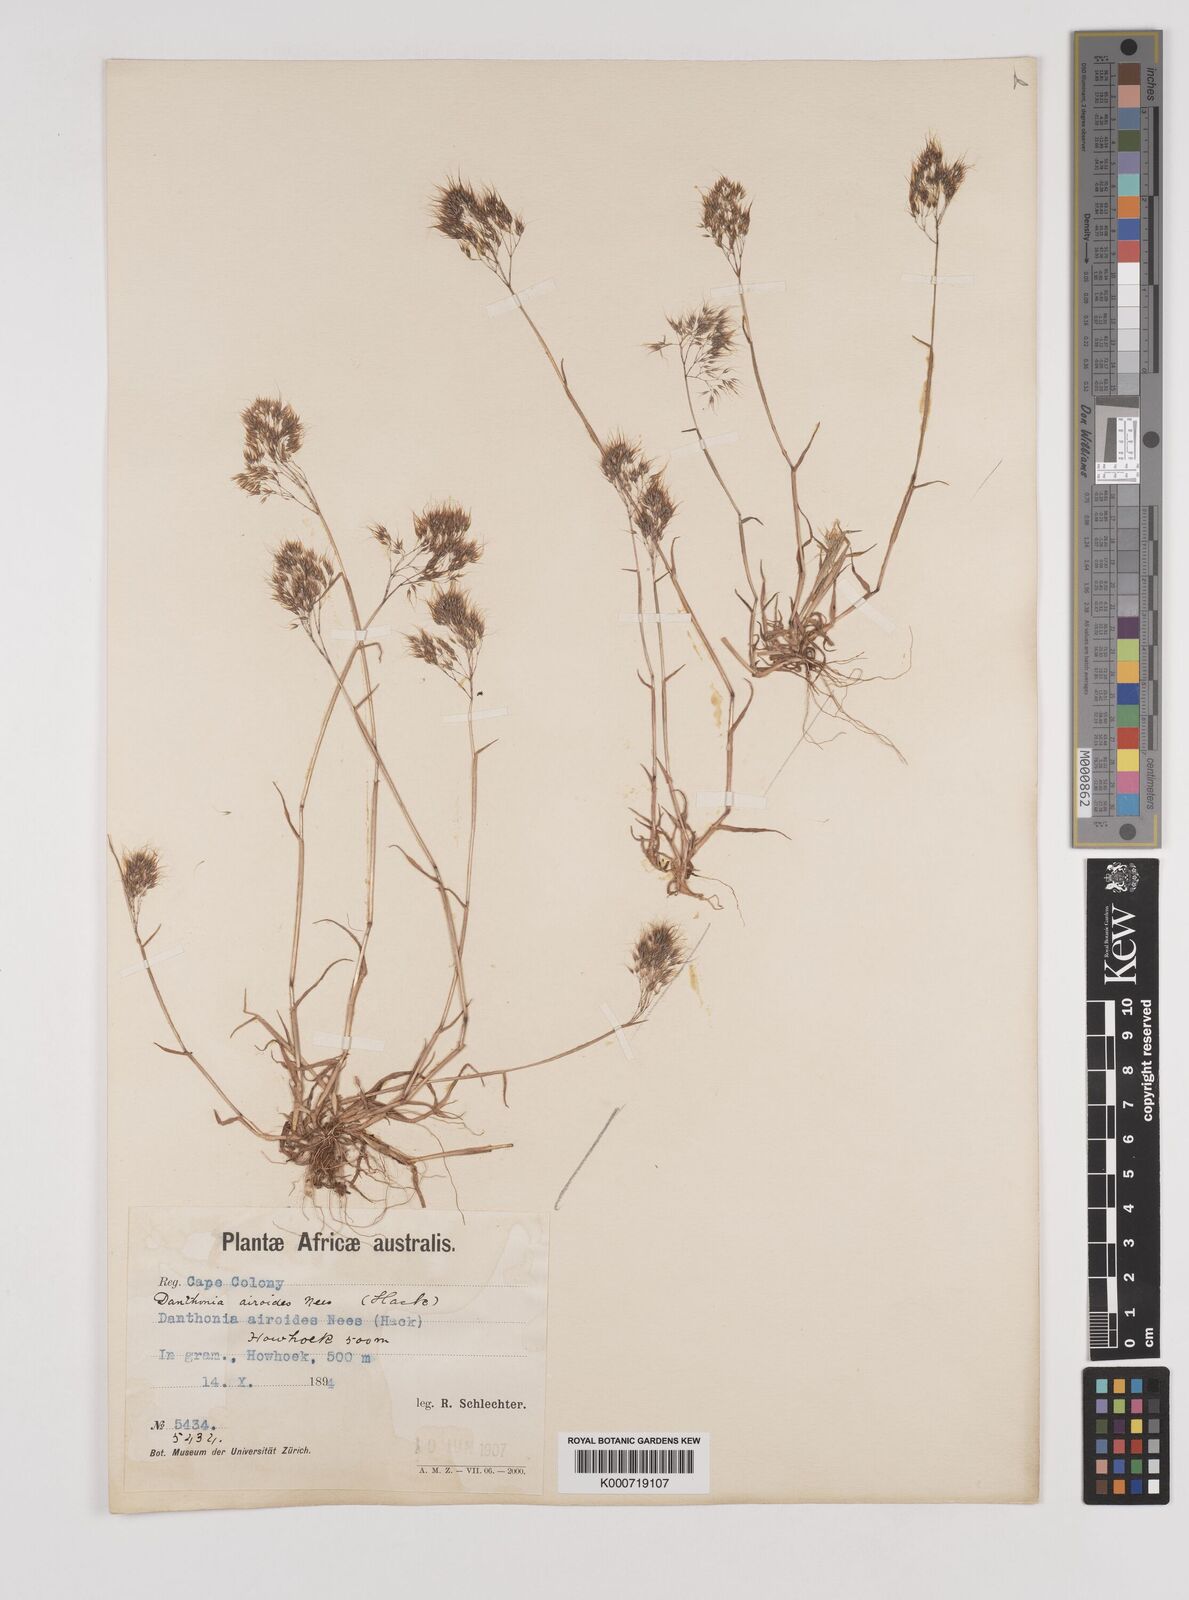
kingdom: Plantae
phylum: Tracheophyta
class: Liliopsida
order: Poales
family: Poaceae
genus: Pentameris
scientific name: Pentameris airoides
